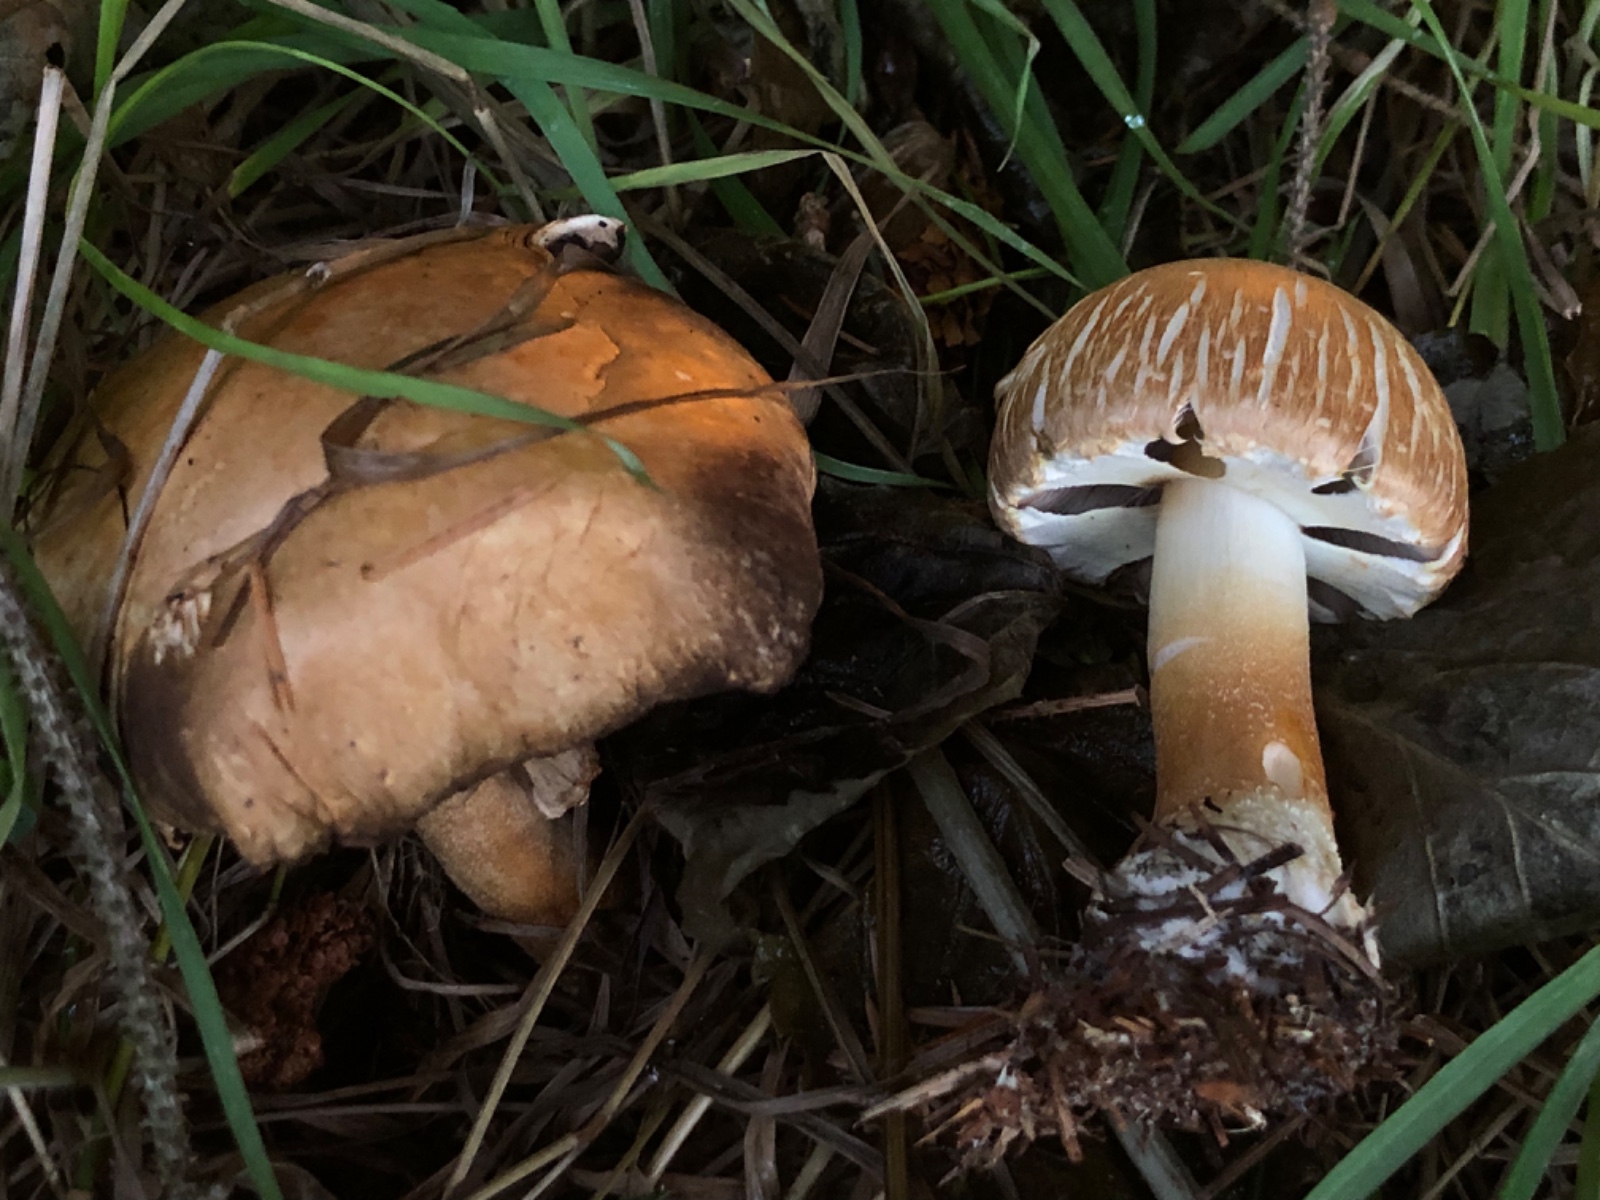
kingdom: Fungi
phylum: Basidiomycota
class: Agaricomycetes
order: Agaricales
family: Agaricaceae
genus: Agaricus
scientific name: Agaricus
